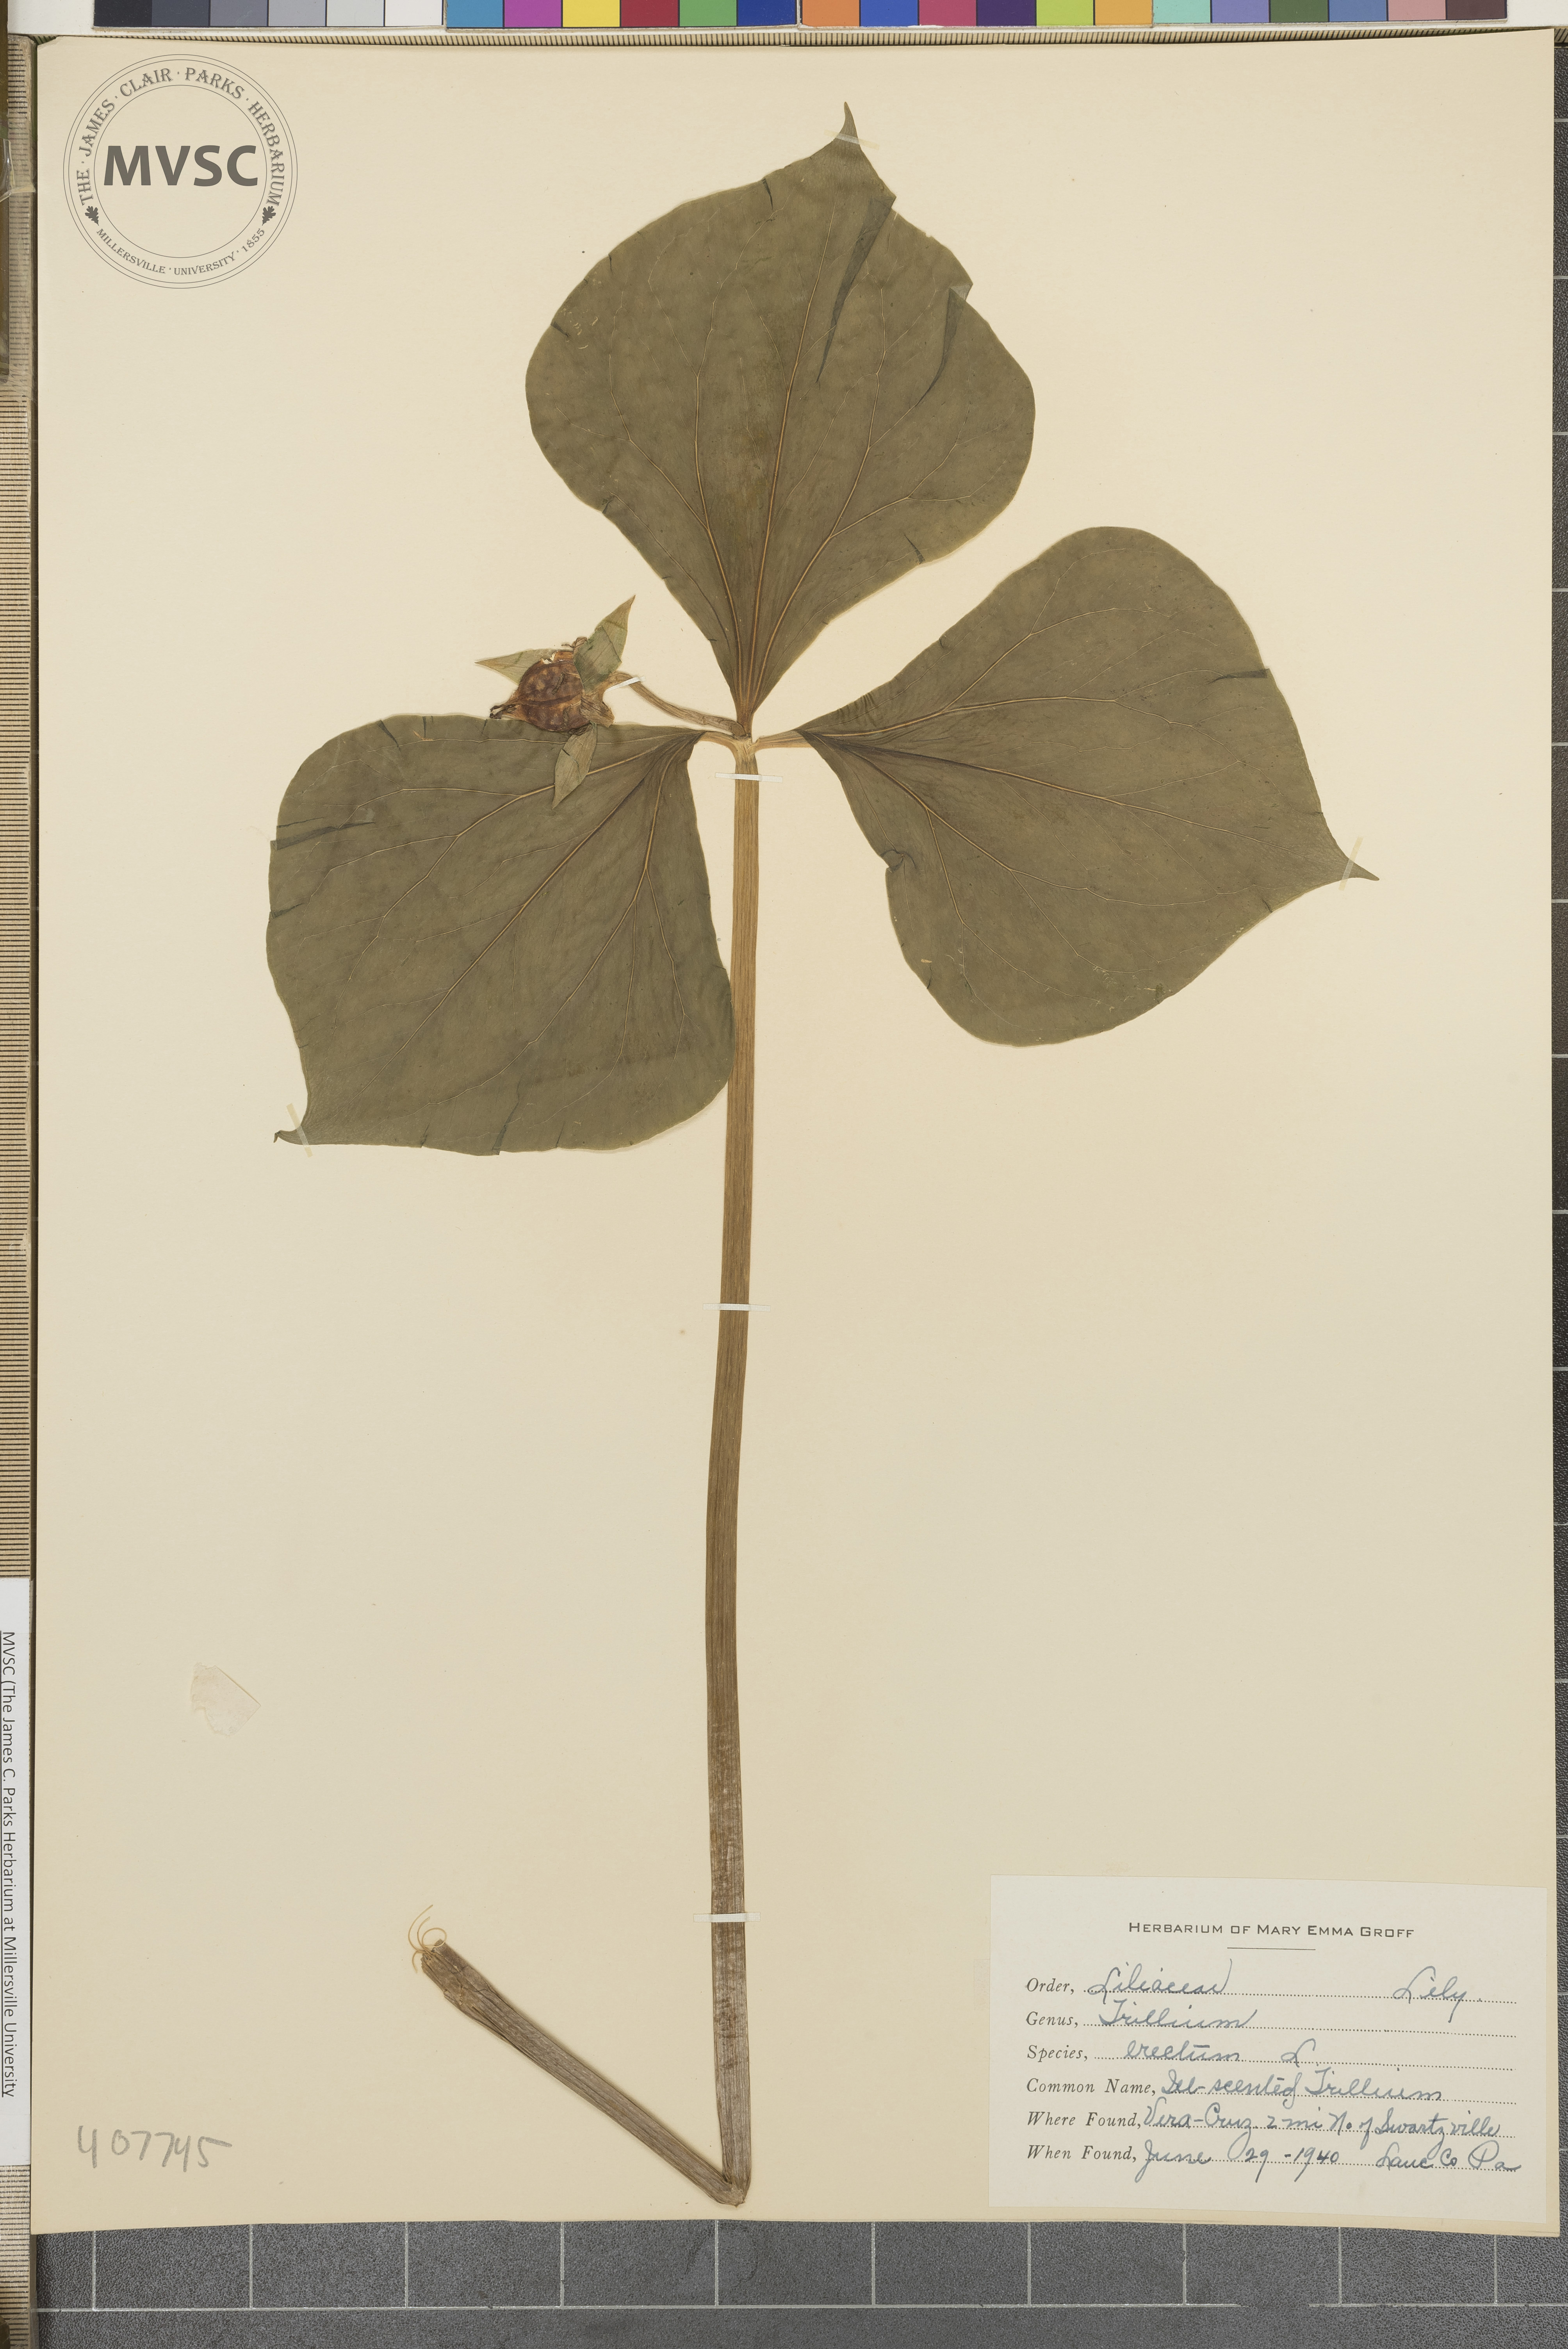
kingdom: Plantae
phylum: Tracheophyta
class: Liliopsida
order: Liliales
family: Melanthiaceae
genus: Trillium
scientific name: Trillium erectum
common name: ill-scented Trillium
